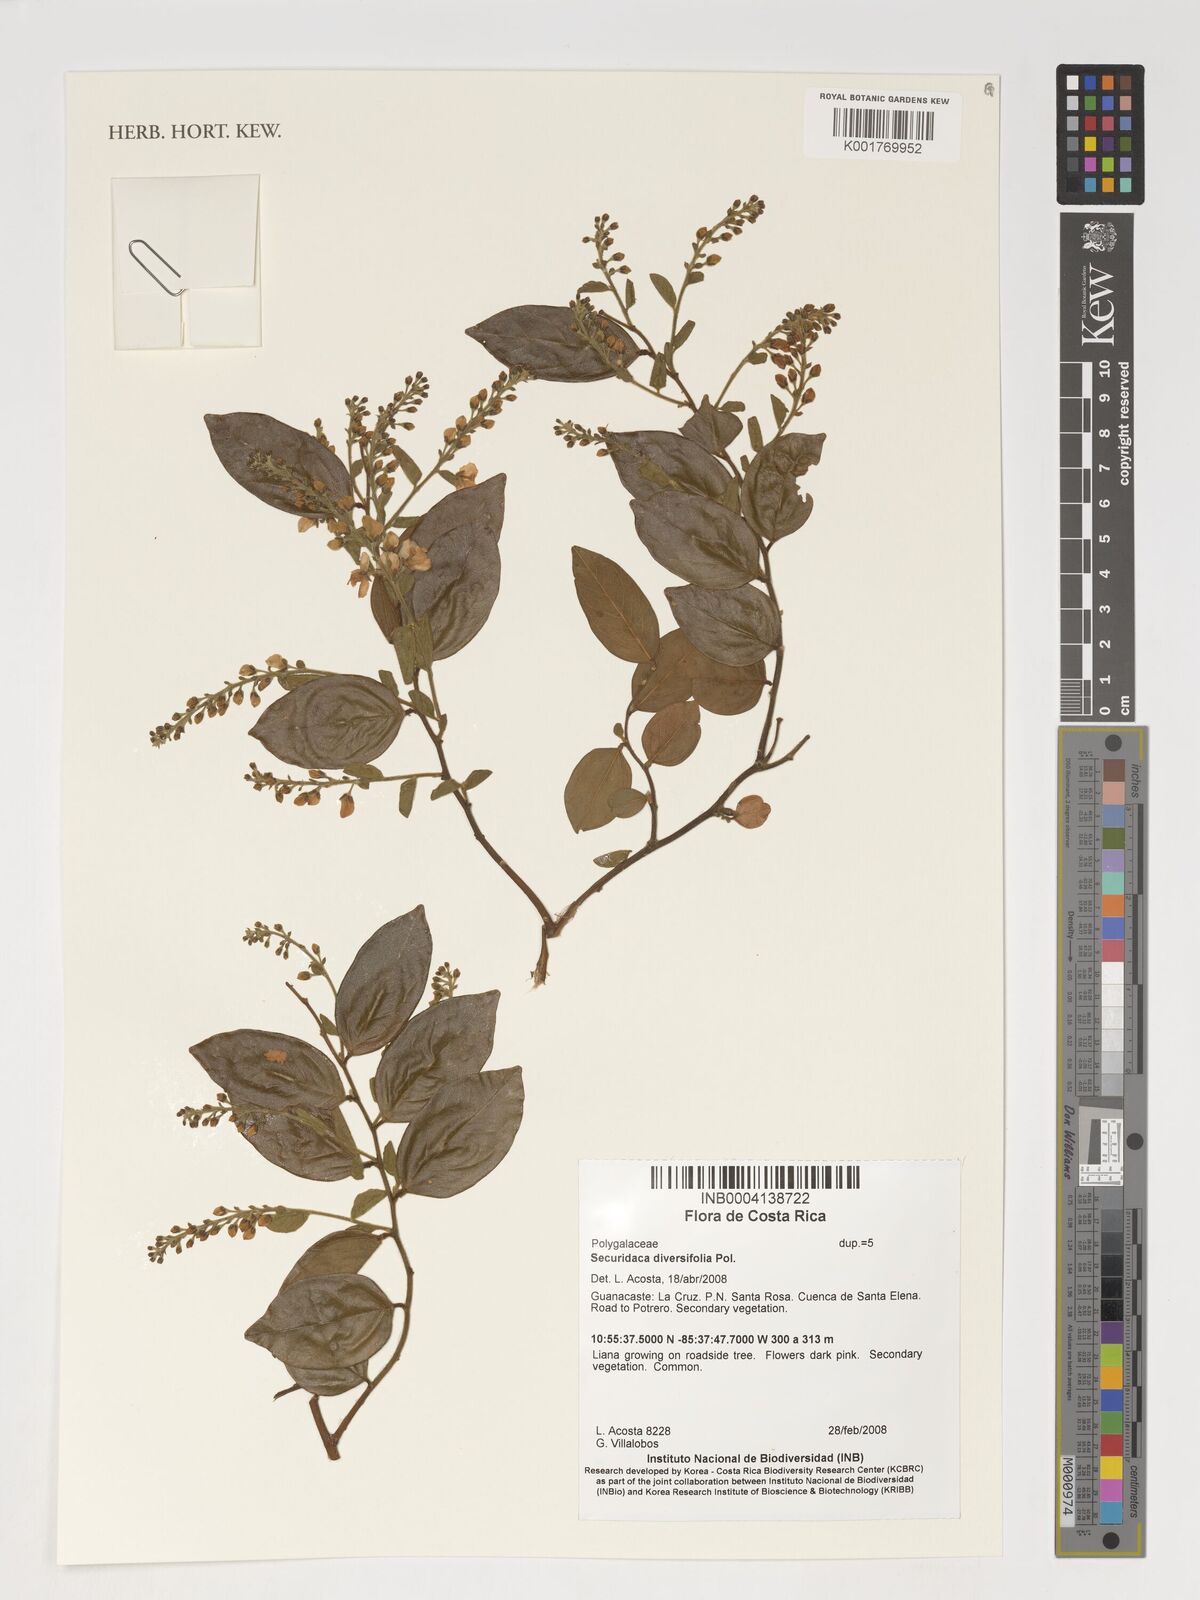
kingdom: Plantae
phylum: Tracheophyta
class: Magnoliopsida
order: Fabales
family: Polygalaceae
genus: Securidaca
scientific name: Securidaca diversifolia
